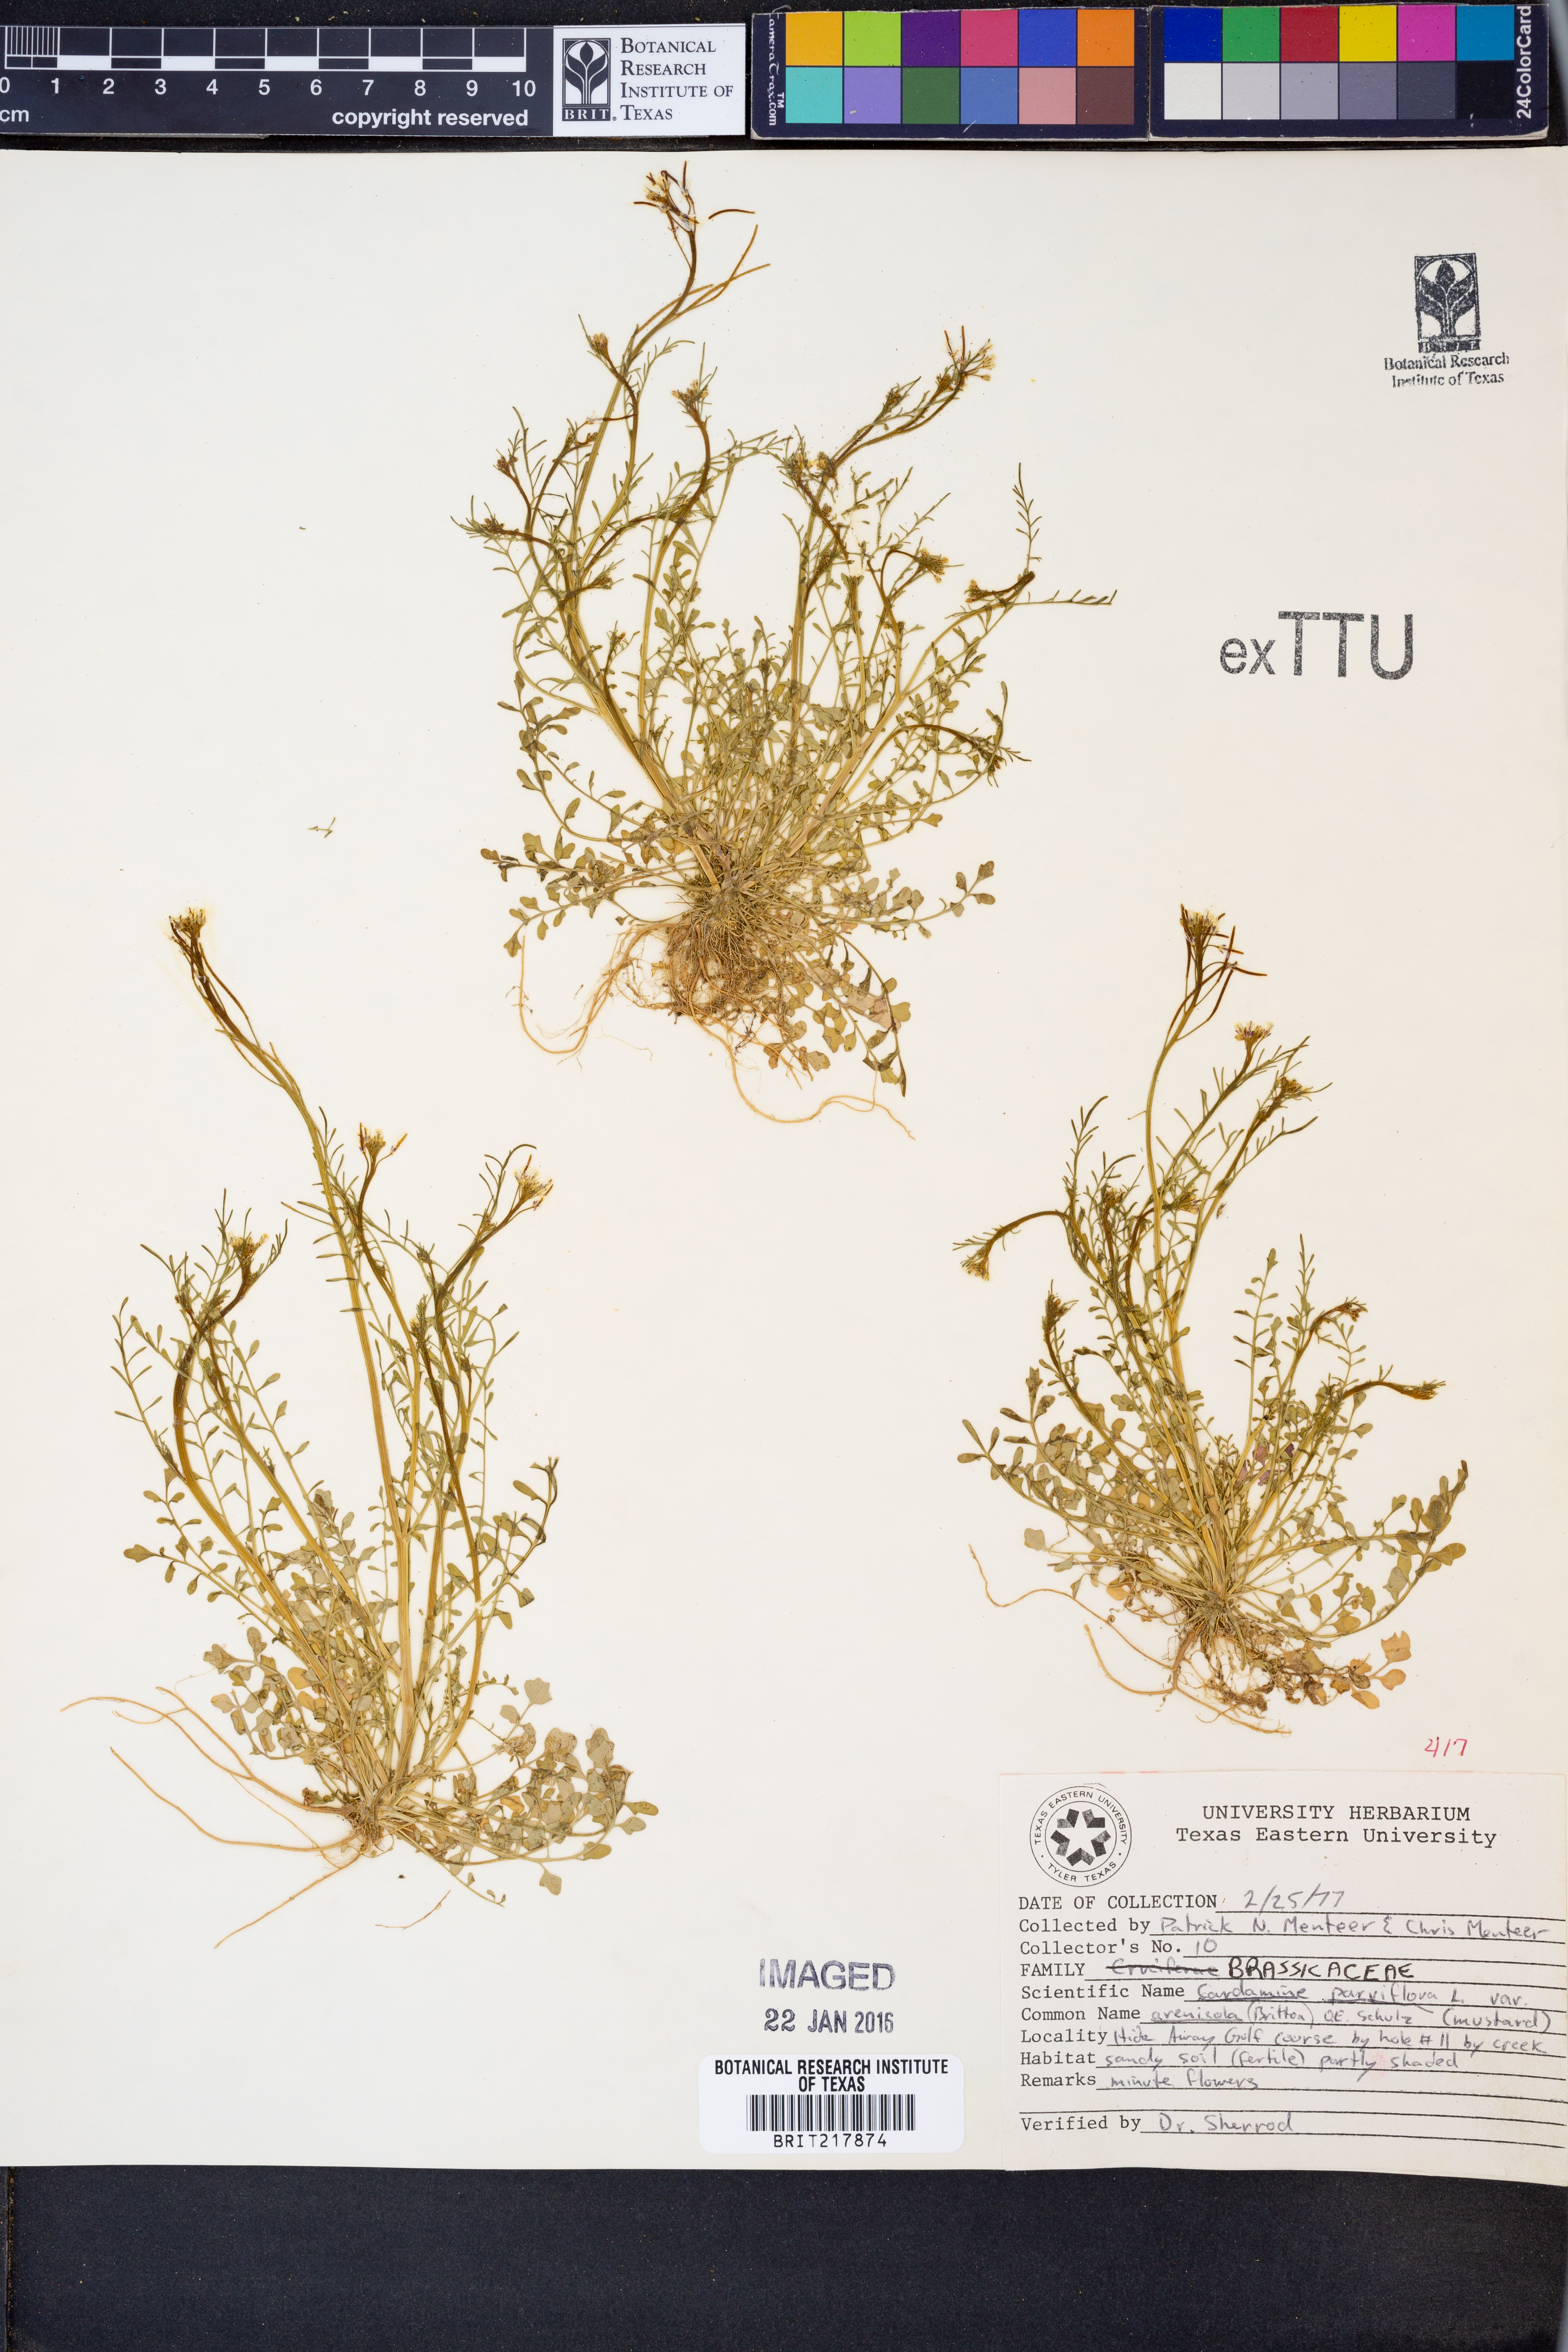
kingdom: Plantae
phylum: Tracheophyta
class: Magnoliopsida
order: Brassicales
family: Brassicaceae
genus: Cardamine
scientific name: Cardamine parviflora
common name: Sand bittercress
